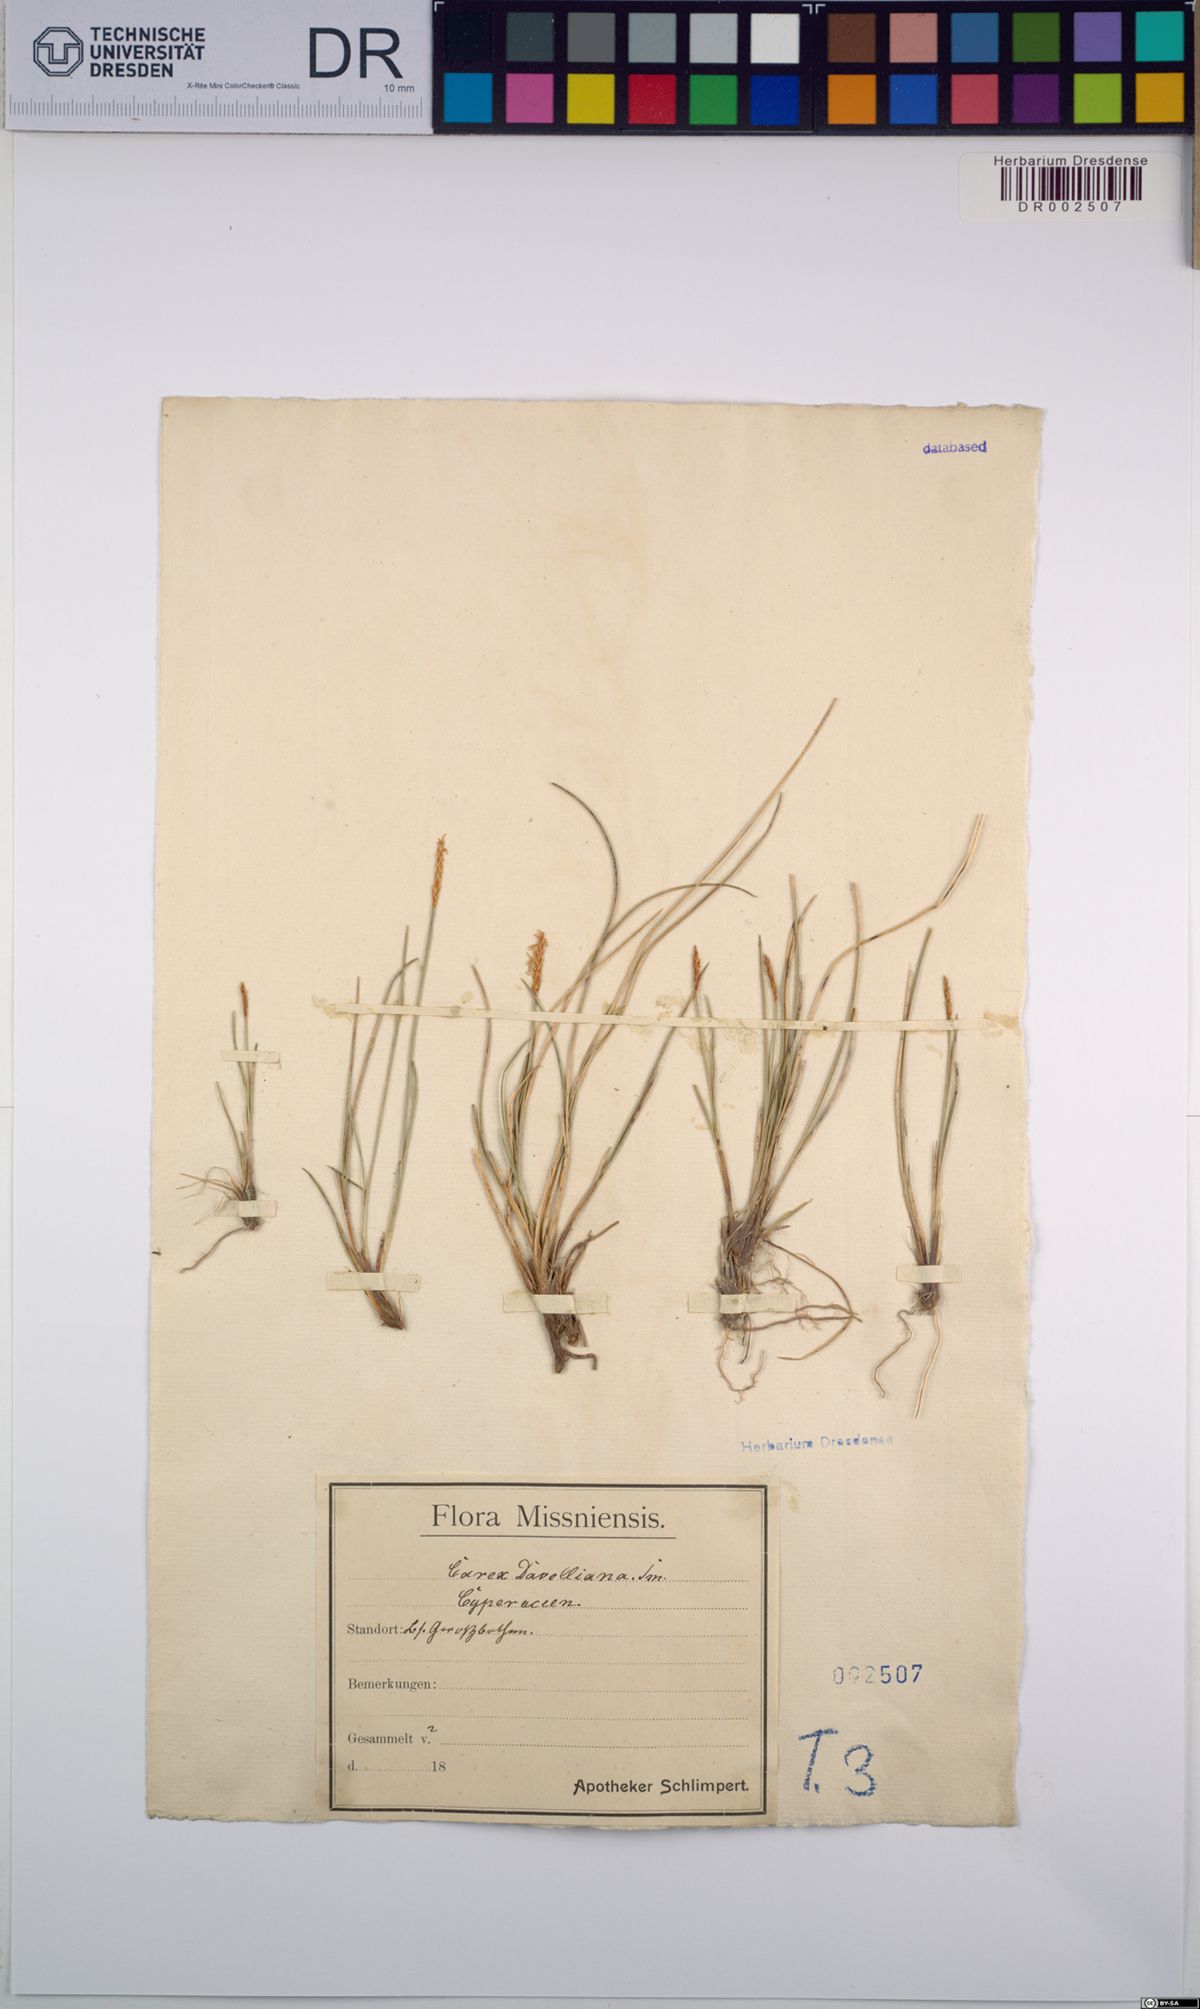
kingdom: Plantae
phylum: Tracheophyta
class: Liliopsida
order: Poales
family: Cyperaceae
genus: Carex
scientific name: Carex davalliana
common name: Davall's sedge
